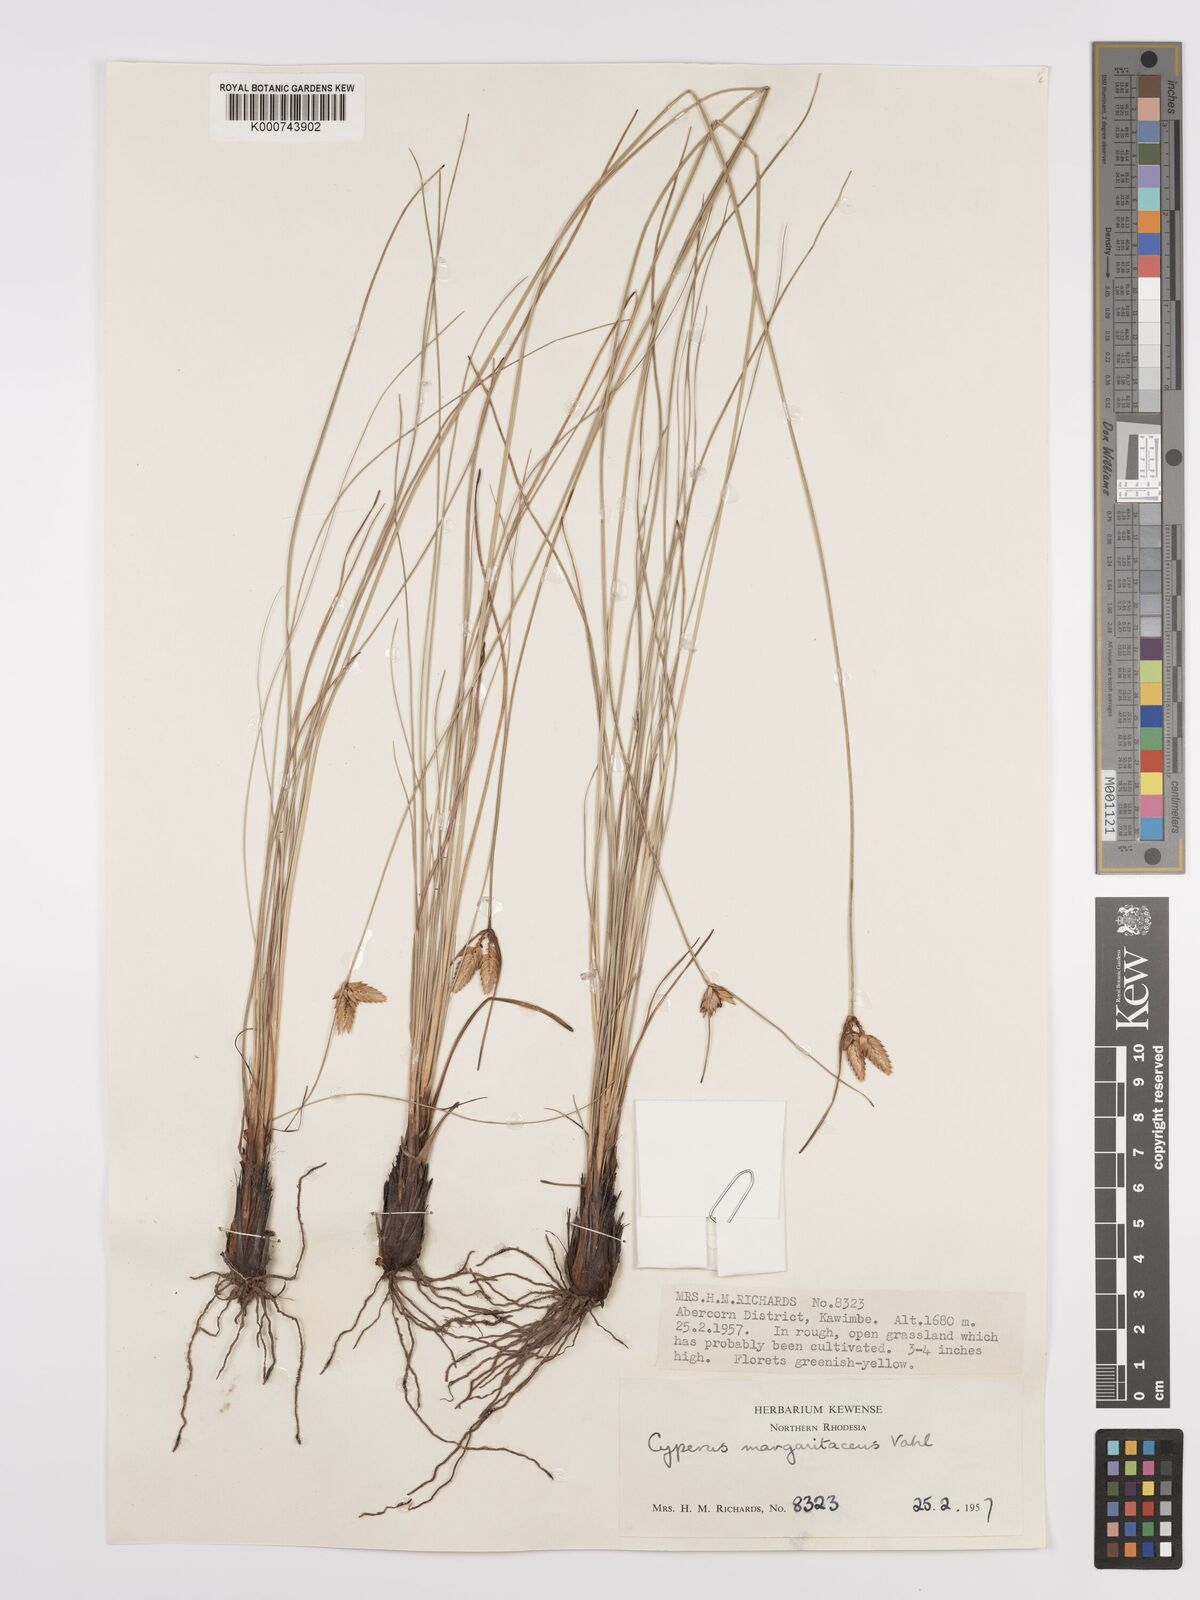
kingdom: Plantae
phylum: Tracheophyta
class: Liliopsida
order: Poales
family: Cyperaceae
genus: Cyperus
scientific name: Cyperus margaritaceus
